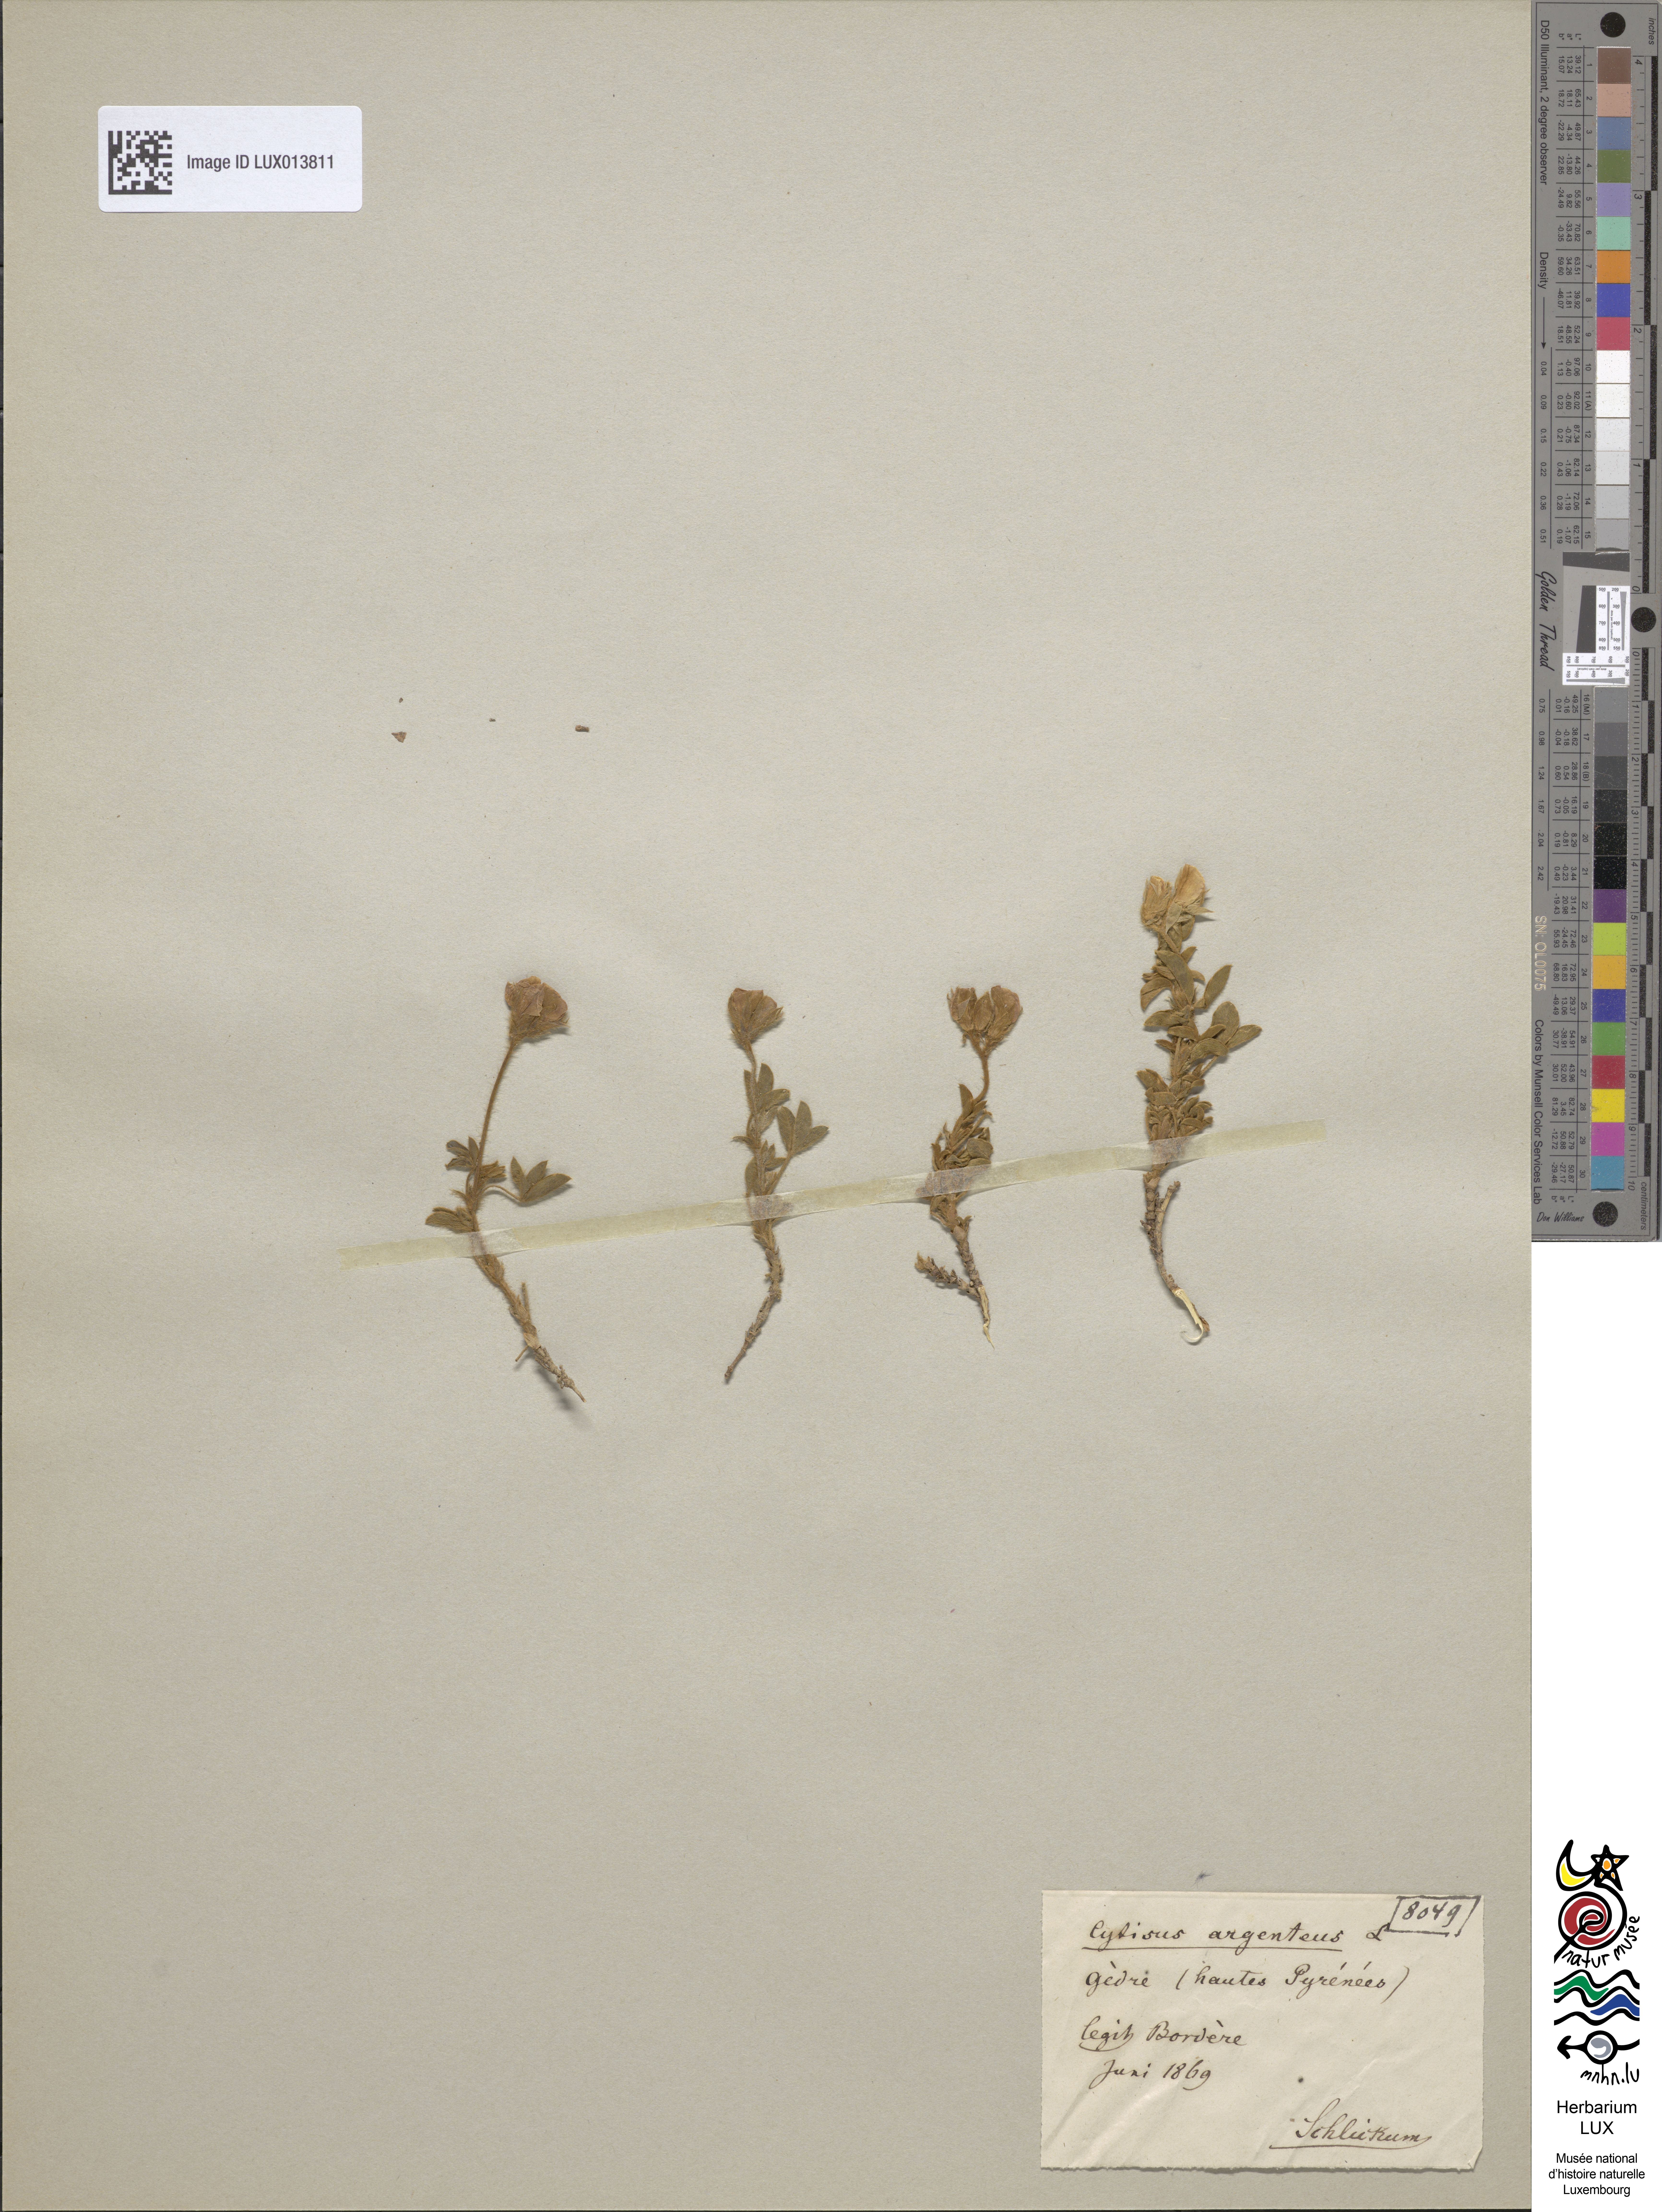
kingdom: Plantae
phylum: Tracheophyta
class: Magnoliopsida
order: Fabales
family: Fabaceae
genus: Argyrolobium
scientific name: Argyrolobium zanonii
